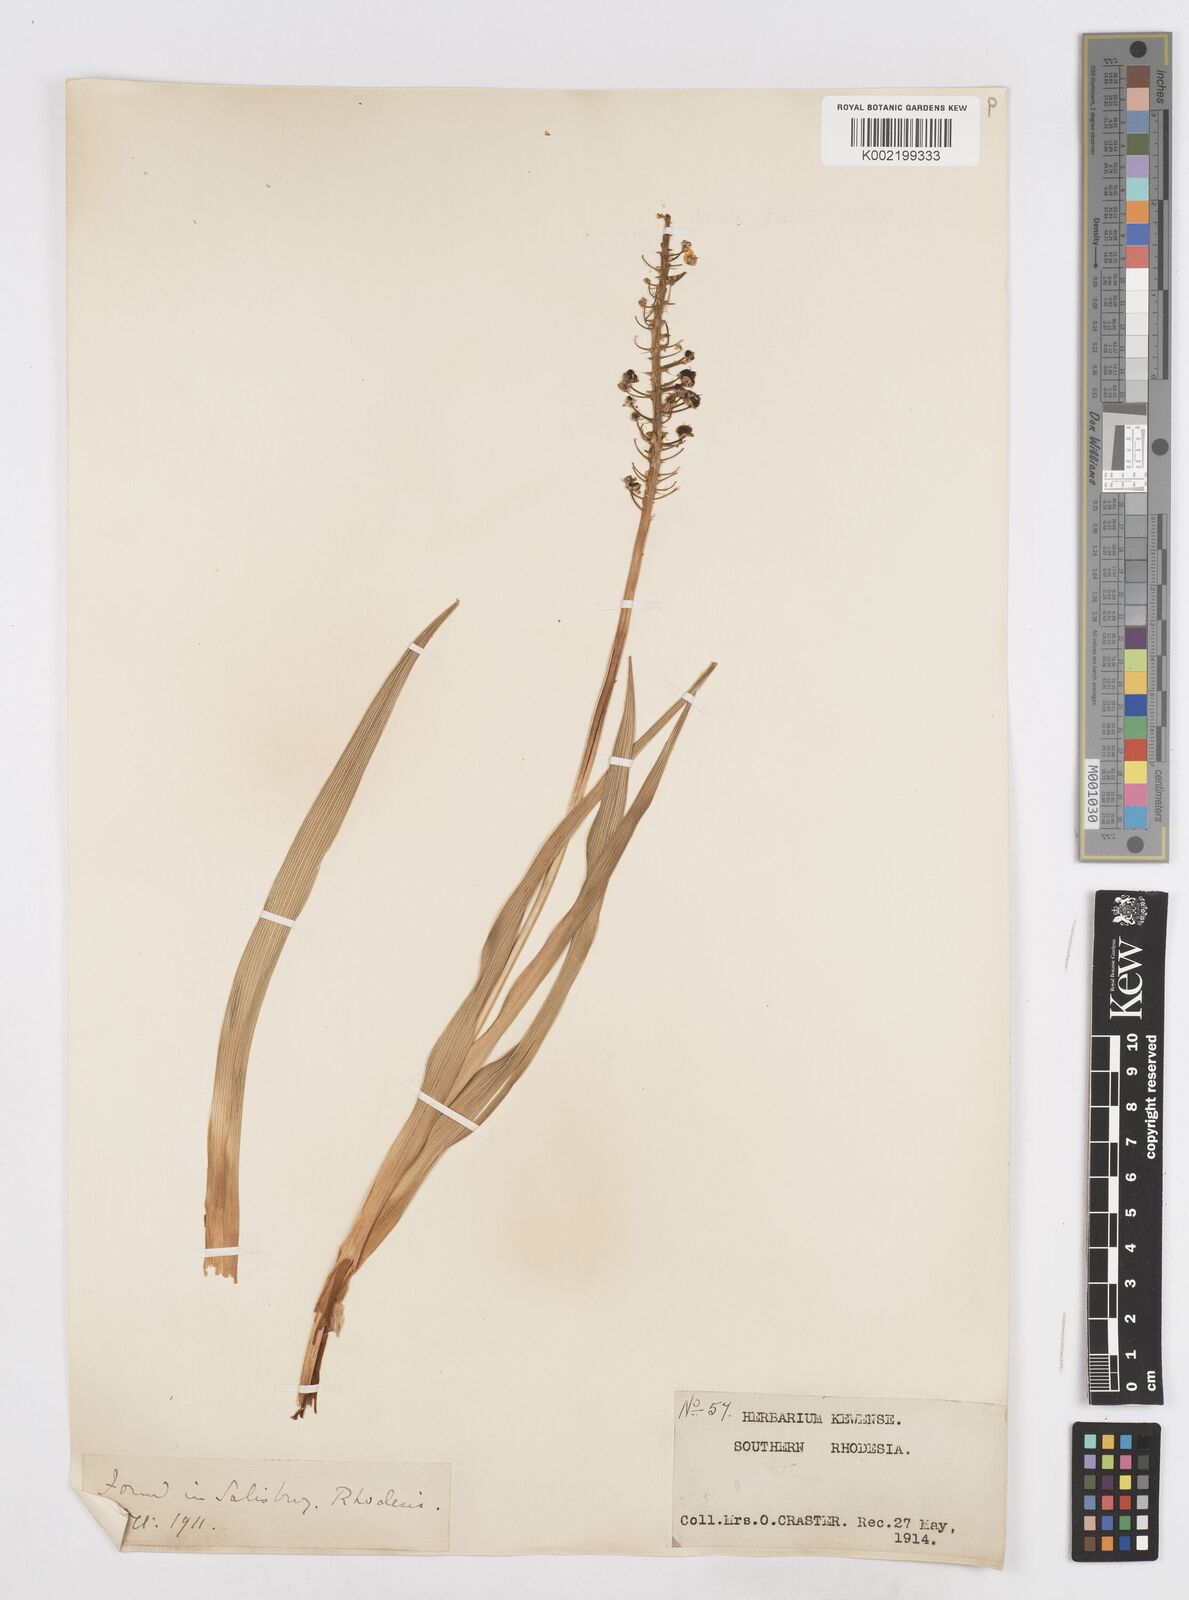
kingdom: Plantae
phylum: Tracheophyta
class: Liliopsida
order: Asparagales
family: Asparagaceae
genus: Schizocarphus
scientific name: Schizocarphus nervosus
